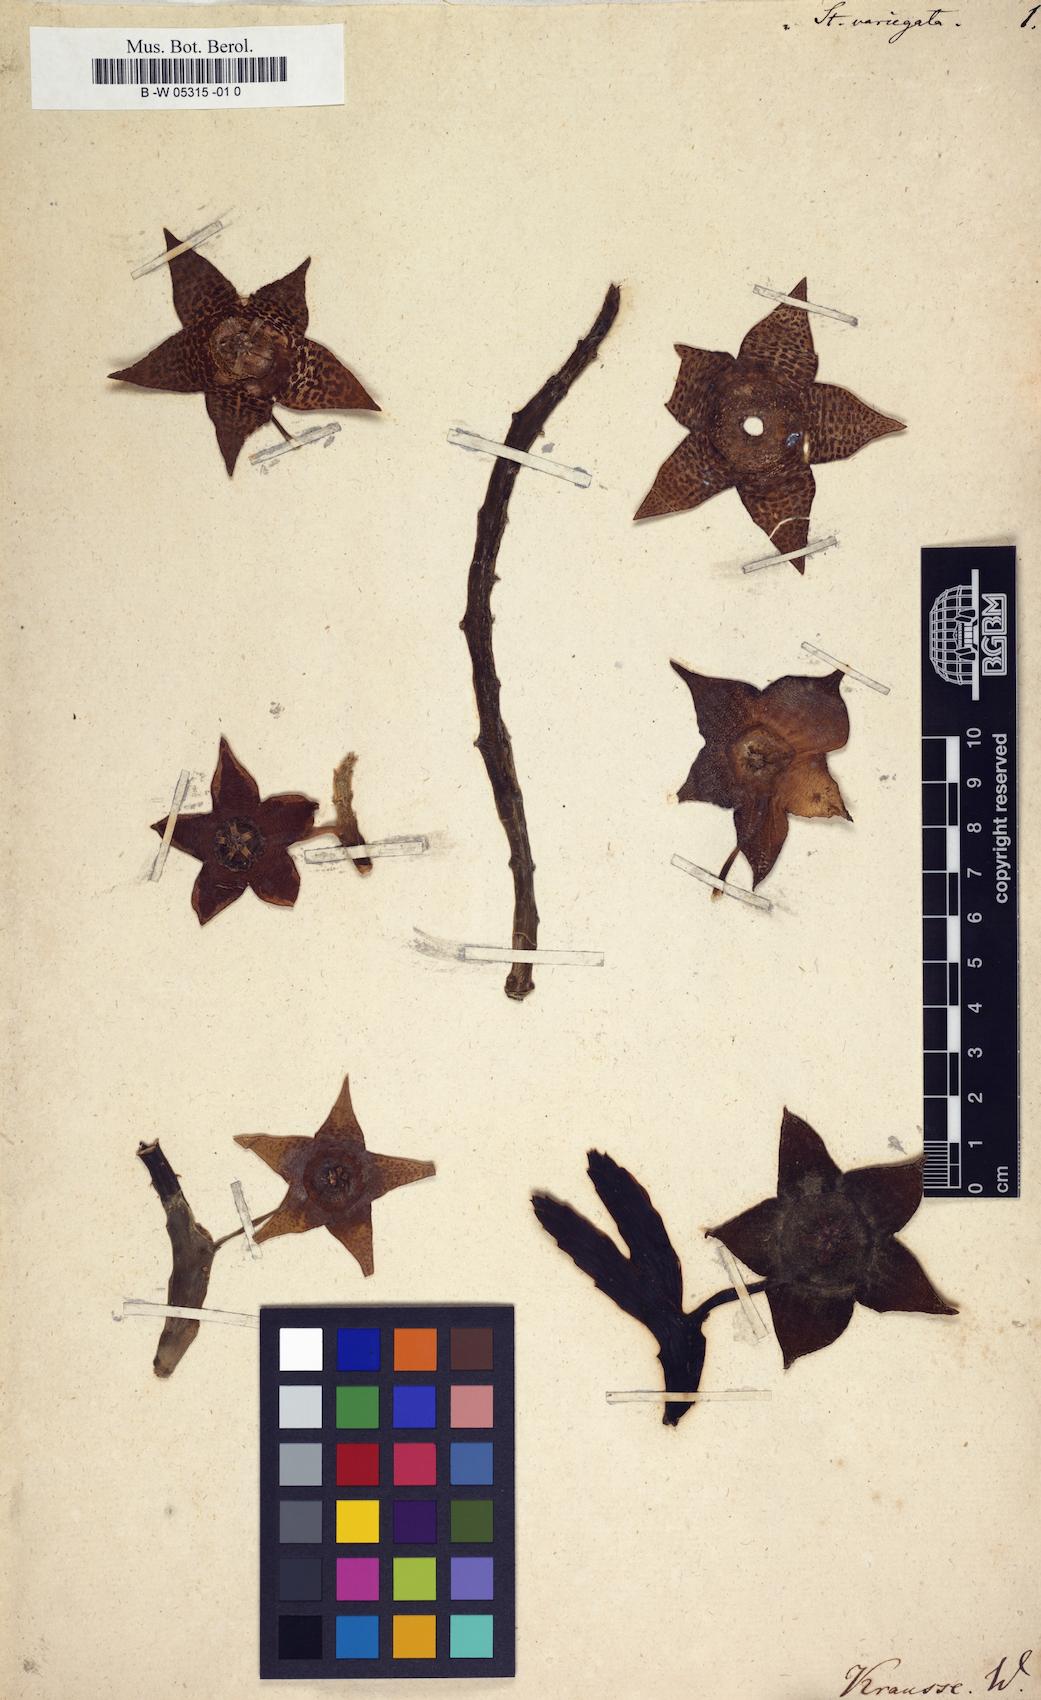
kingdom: Plantae
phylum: Tracheophyta
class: Magnoliopsida
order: Gentianales
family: Apocynaceae
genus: Ceropegia
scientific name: Ceropegia
